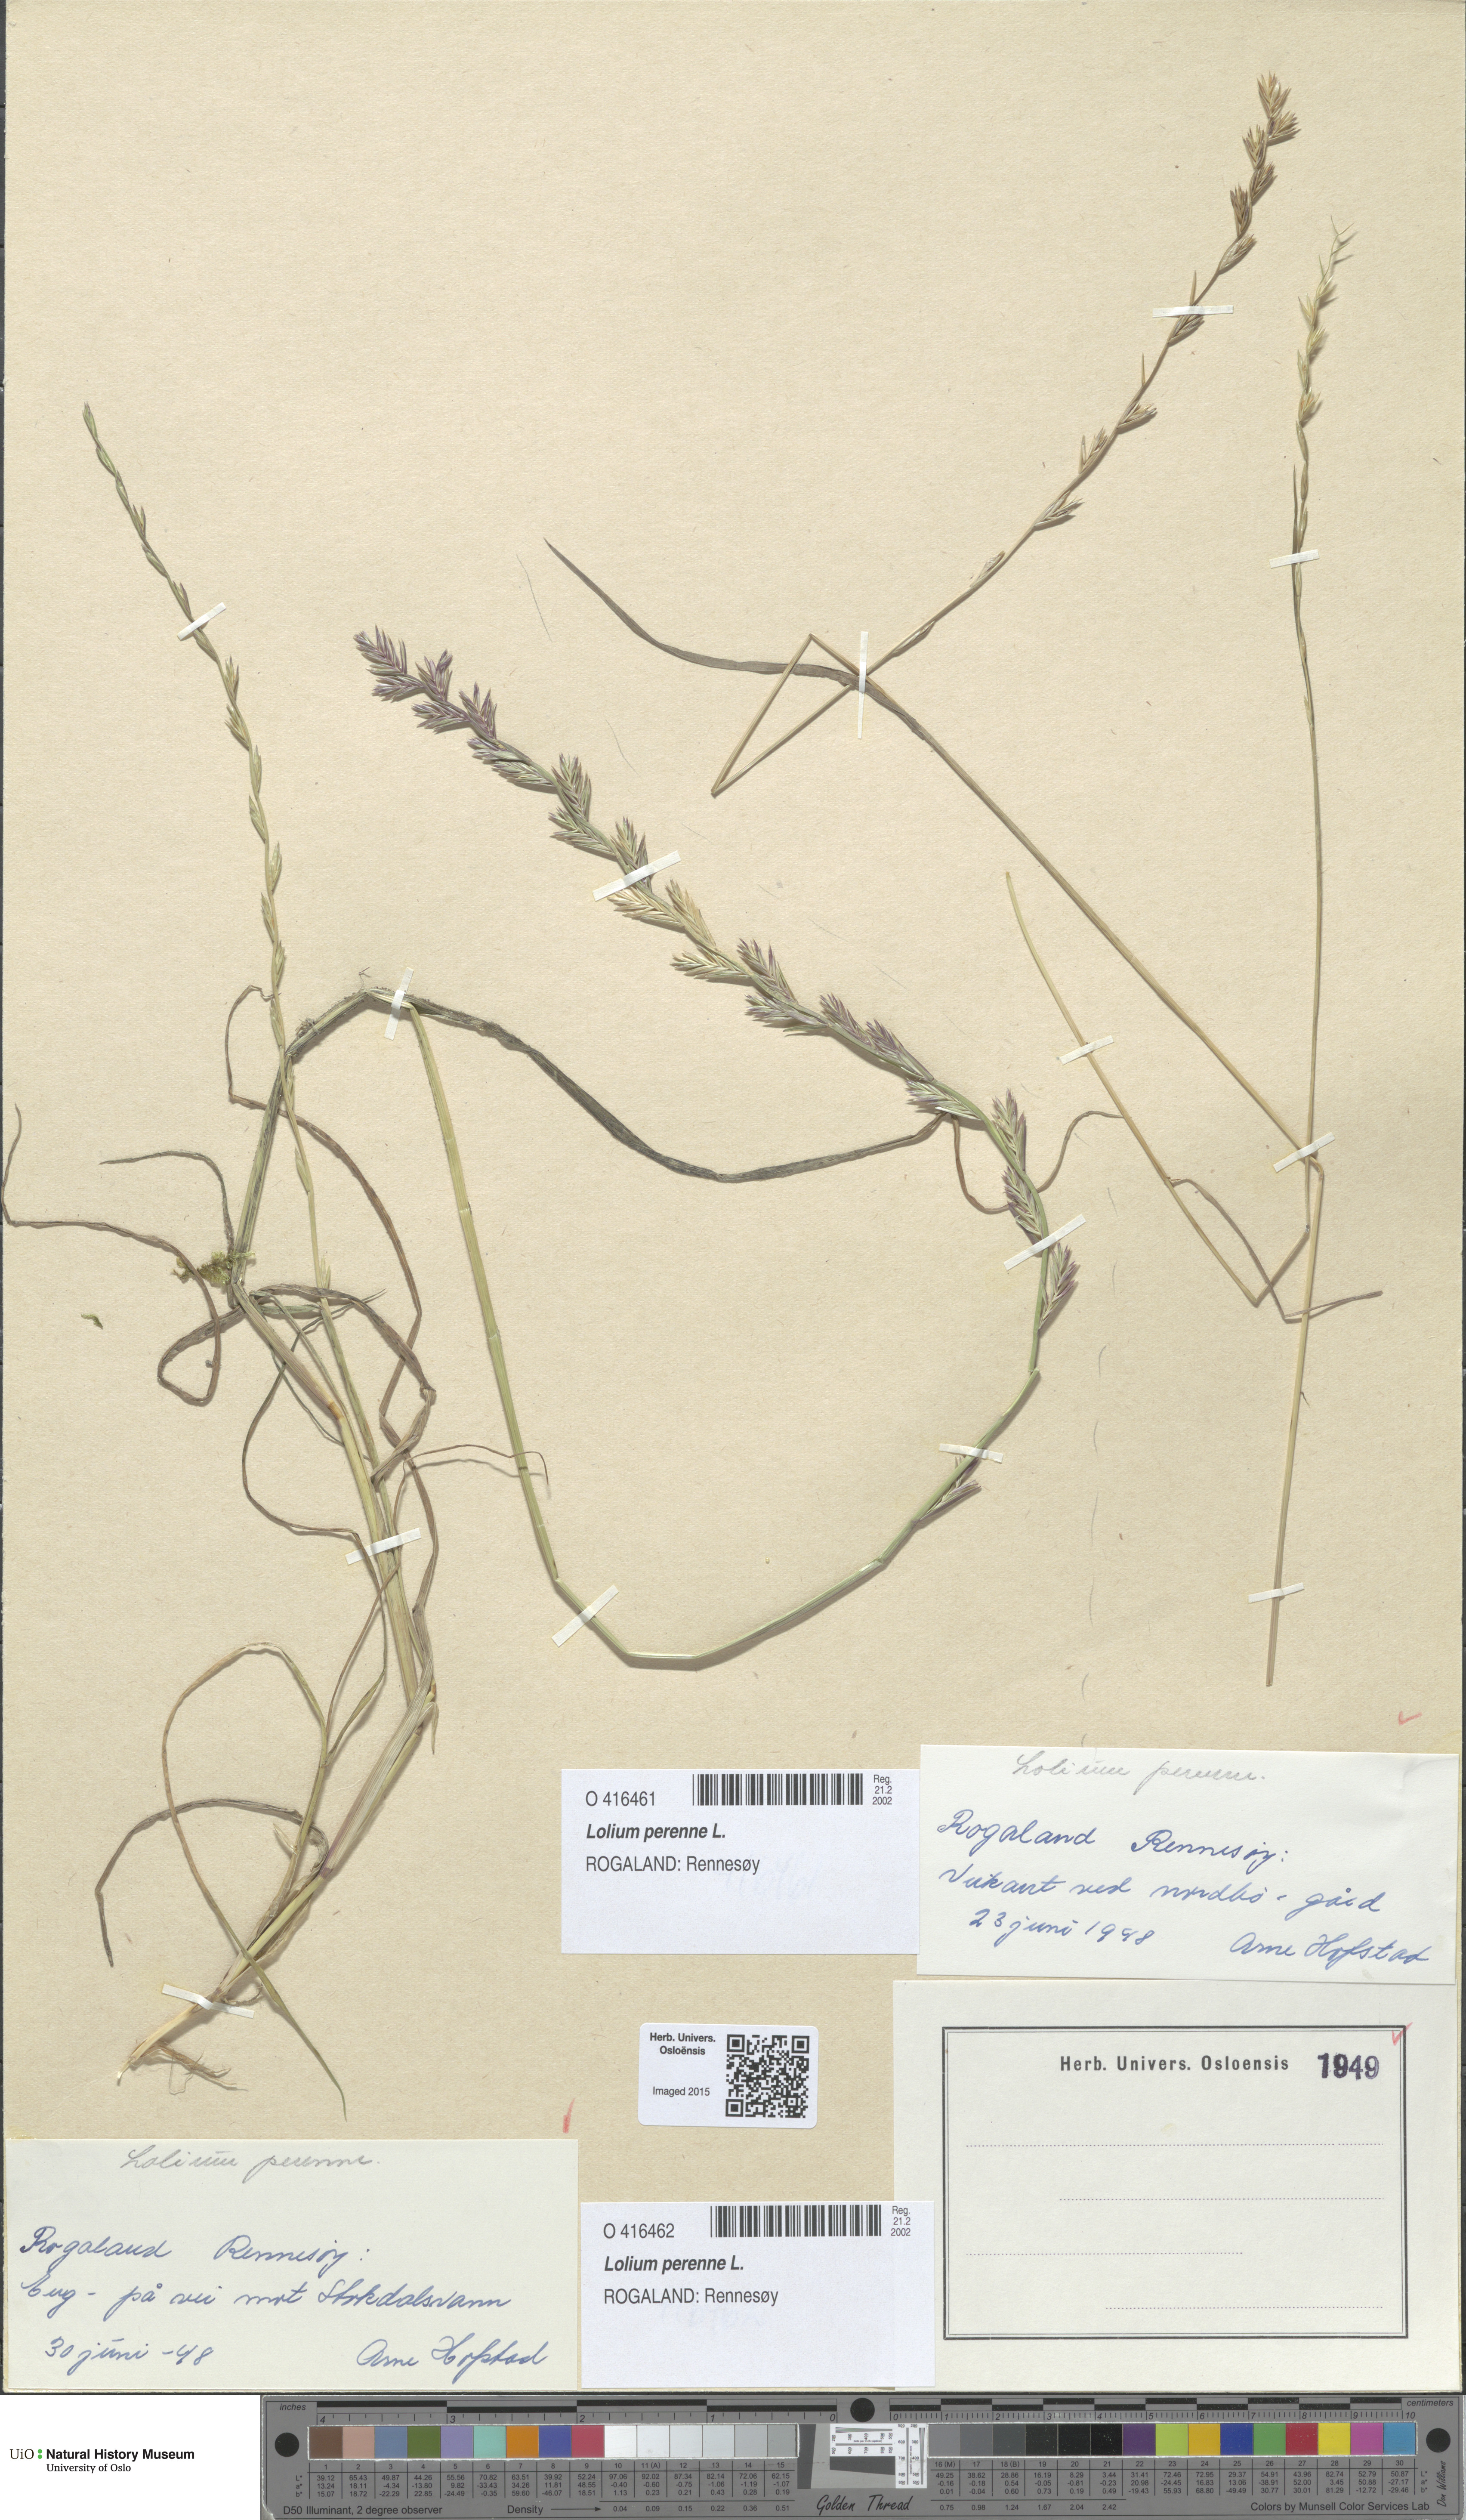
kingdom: Plantae
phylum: Tracheophyta
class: Liliopsida
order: Poales
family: Poaceae
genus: Lolium
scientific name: Lolium perenne
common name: Perennial ryegrass
